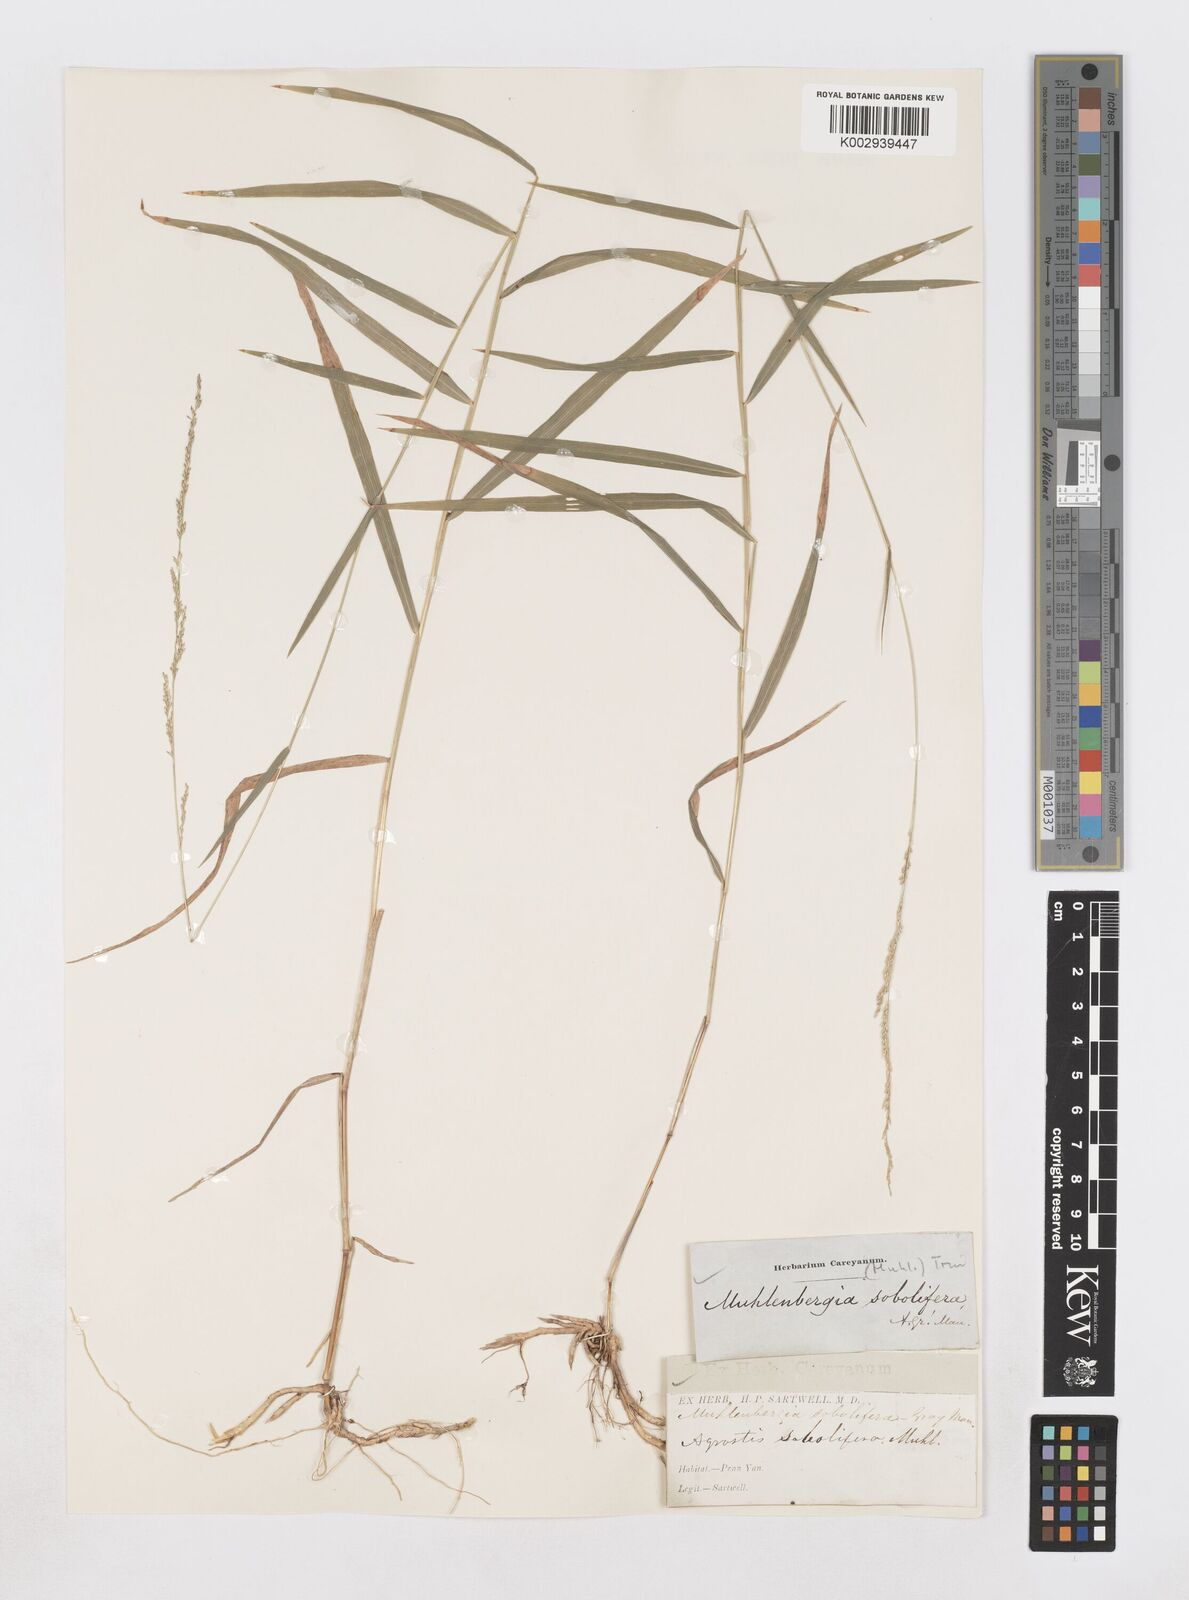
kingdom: Plantae
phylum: Tracheophyta
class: Liliopsida
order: Poales
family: Poaceae
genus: Muhlenbergia
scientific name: Muhlenbergia sobolifera
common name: Creeping muhly
